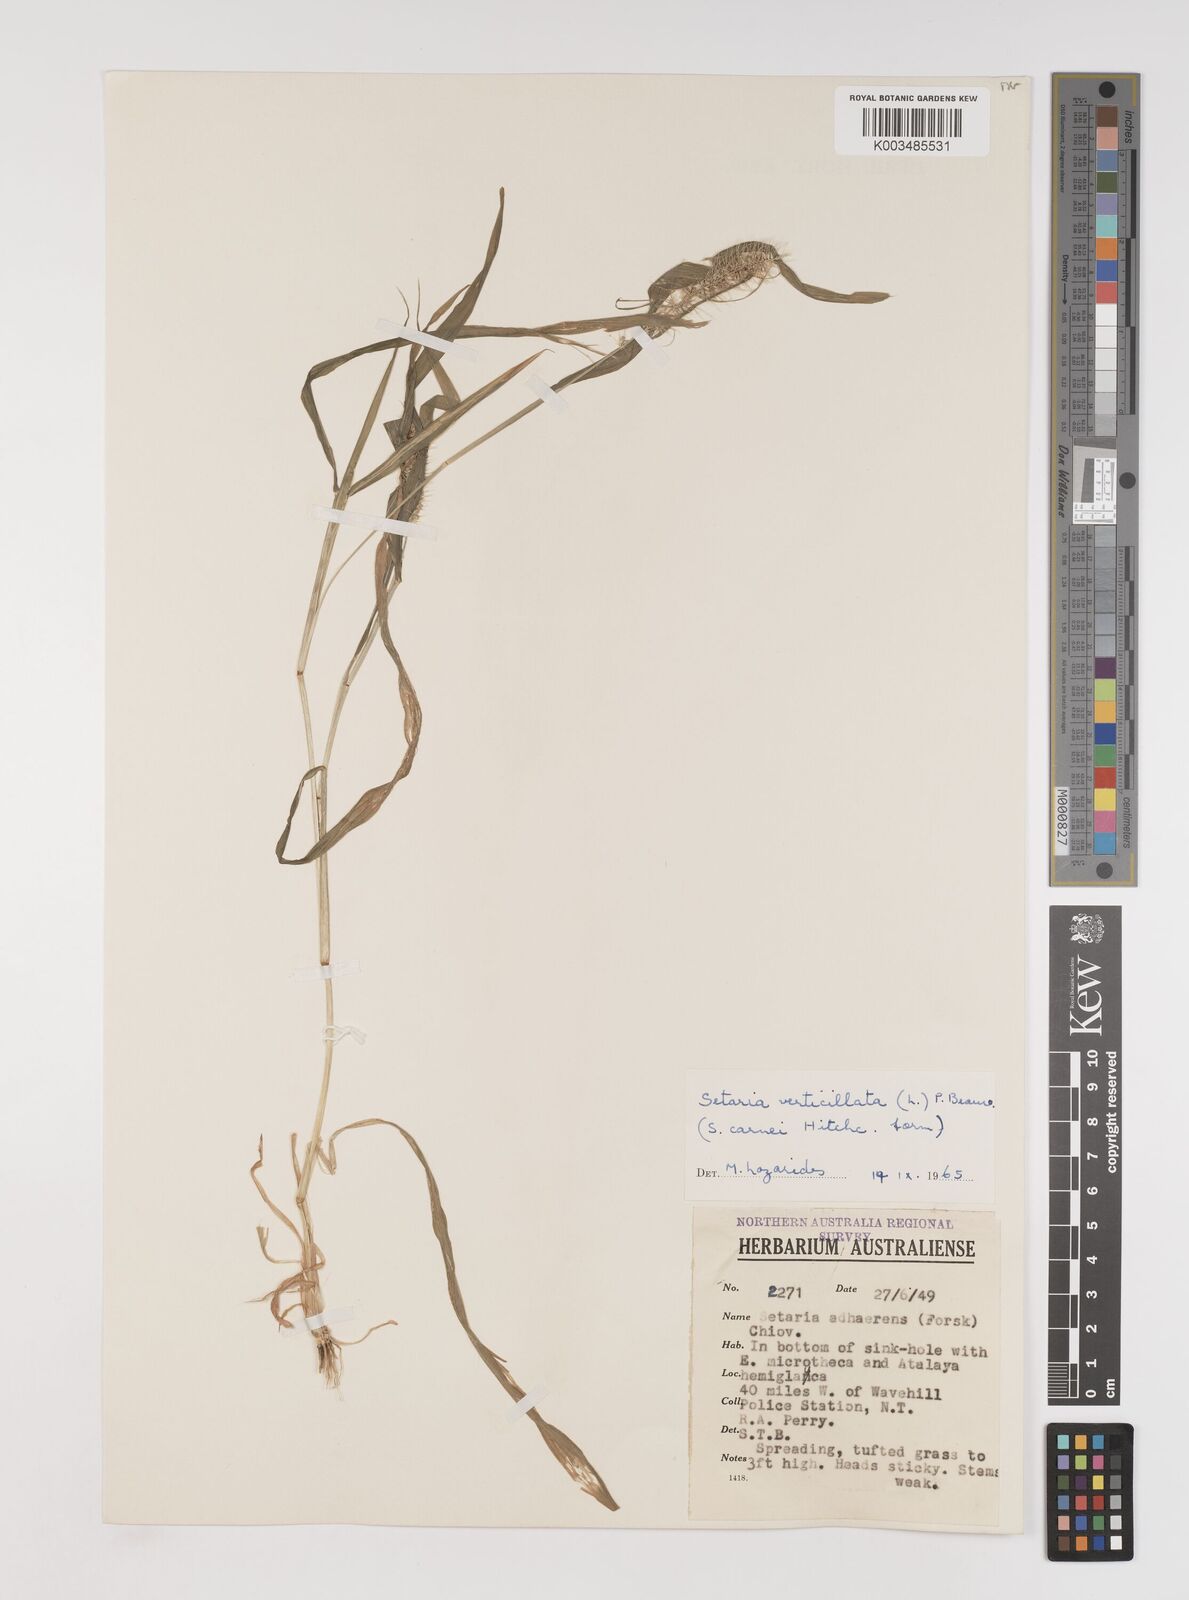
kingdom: Plantae
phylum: Tracheophyta
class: Liliopsida
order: Poales
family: Poaceae
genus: Setaria
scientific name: Setaria verticillata
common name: Hooked bristlegrass
